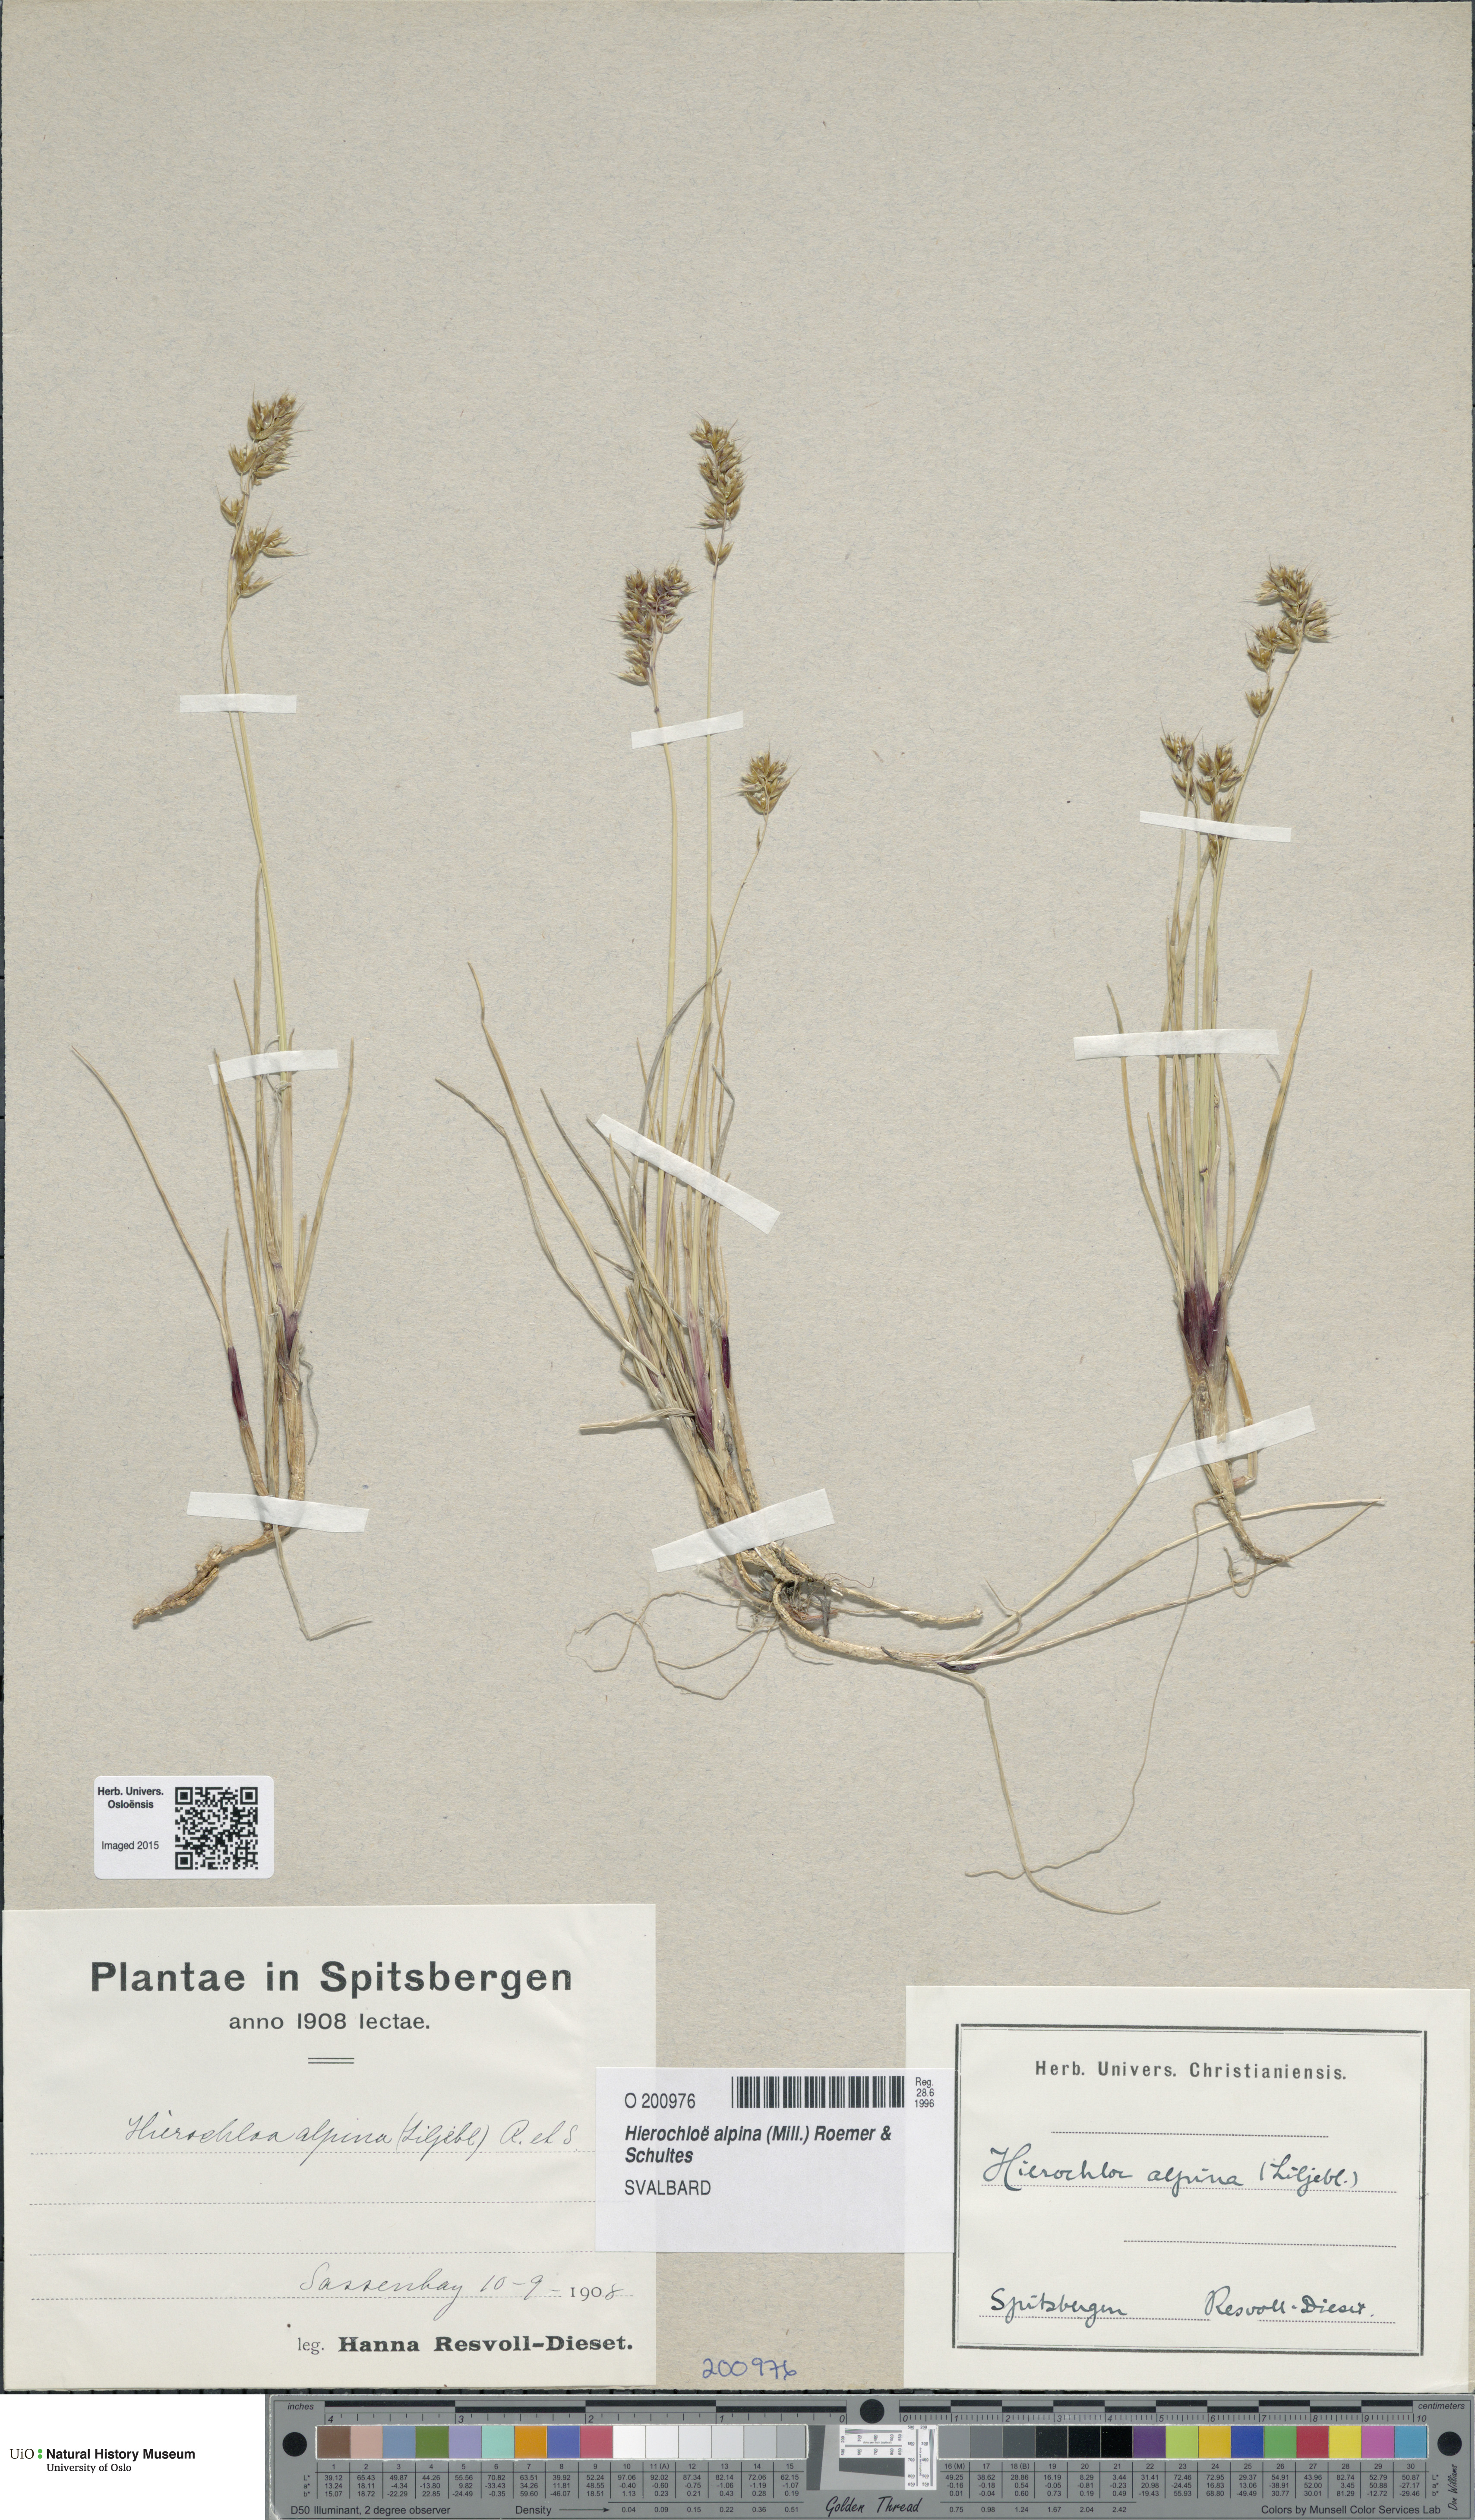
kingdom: Plantae
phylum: Tracheophyta
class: Liliopsida
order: Poales
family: Poaceae
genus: Anthoxanthum
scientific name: Anthoxanthum monticola
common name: Alpine sweetgrass
